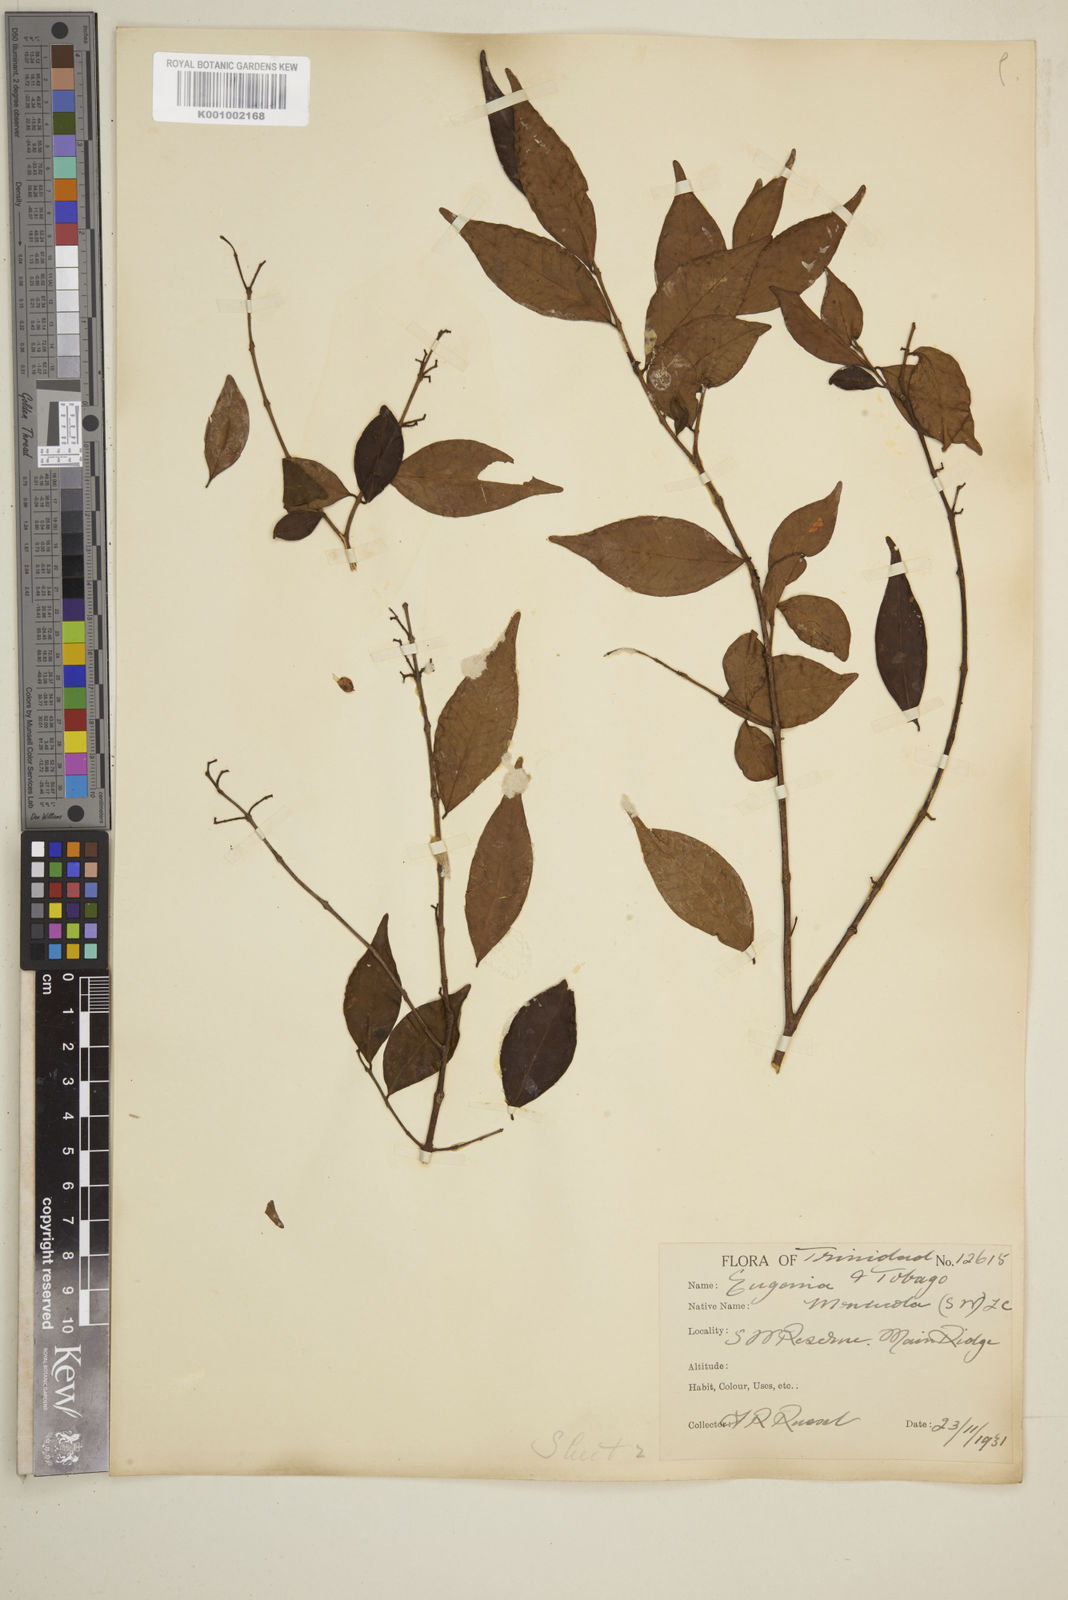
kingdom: Plantae
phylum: Tracheophyta
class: Magnoliopsida
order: Myrtales
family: Myrtaceae
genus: Eugenia
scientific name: Eugenia monticola
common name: Birds berry
